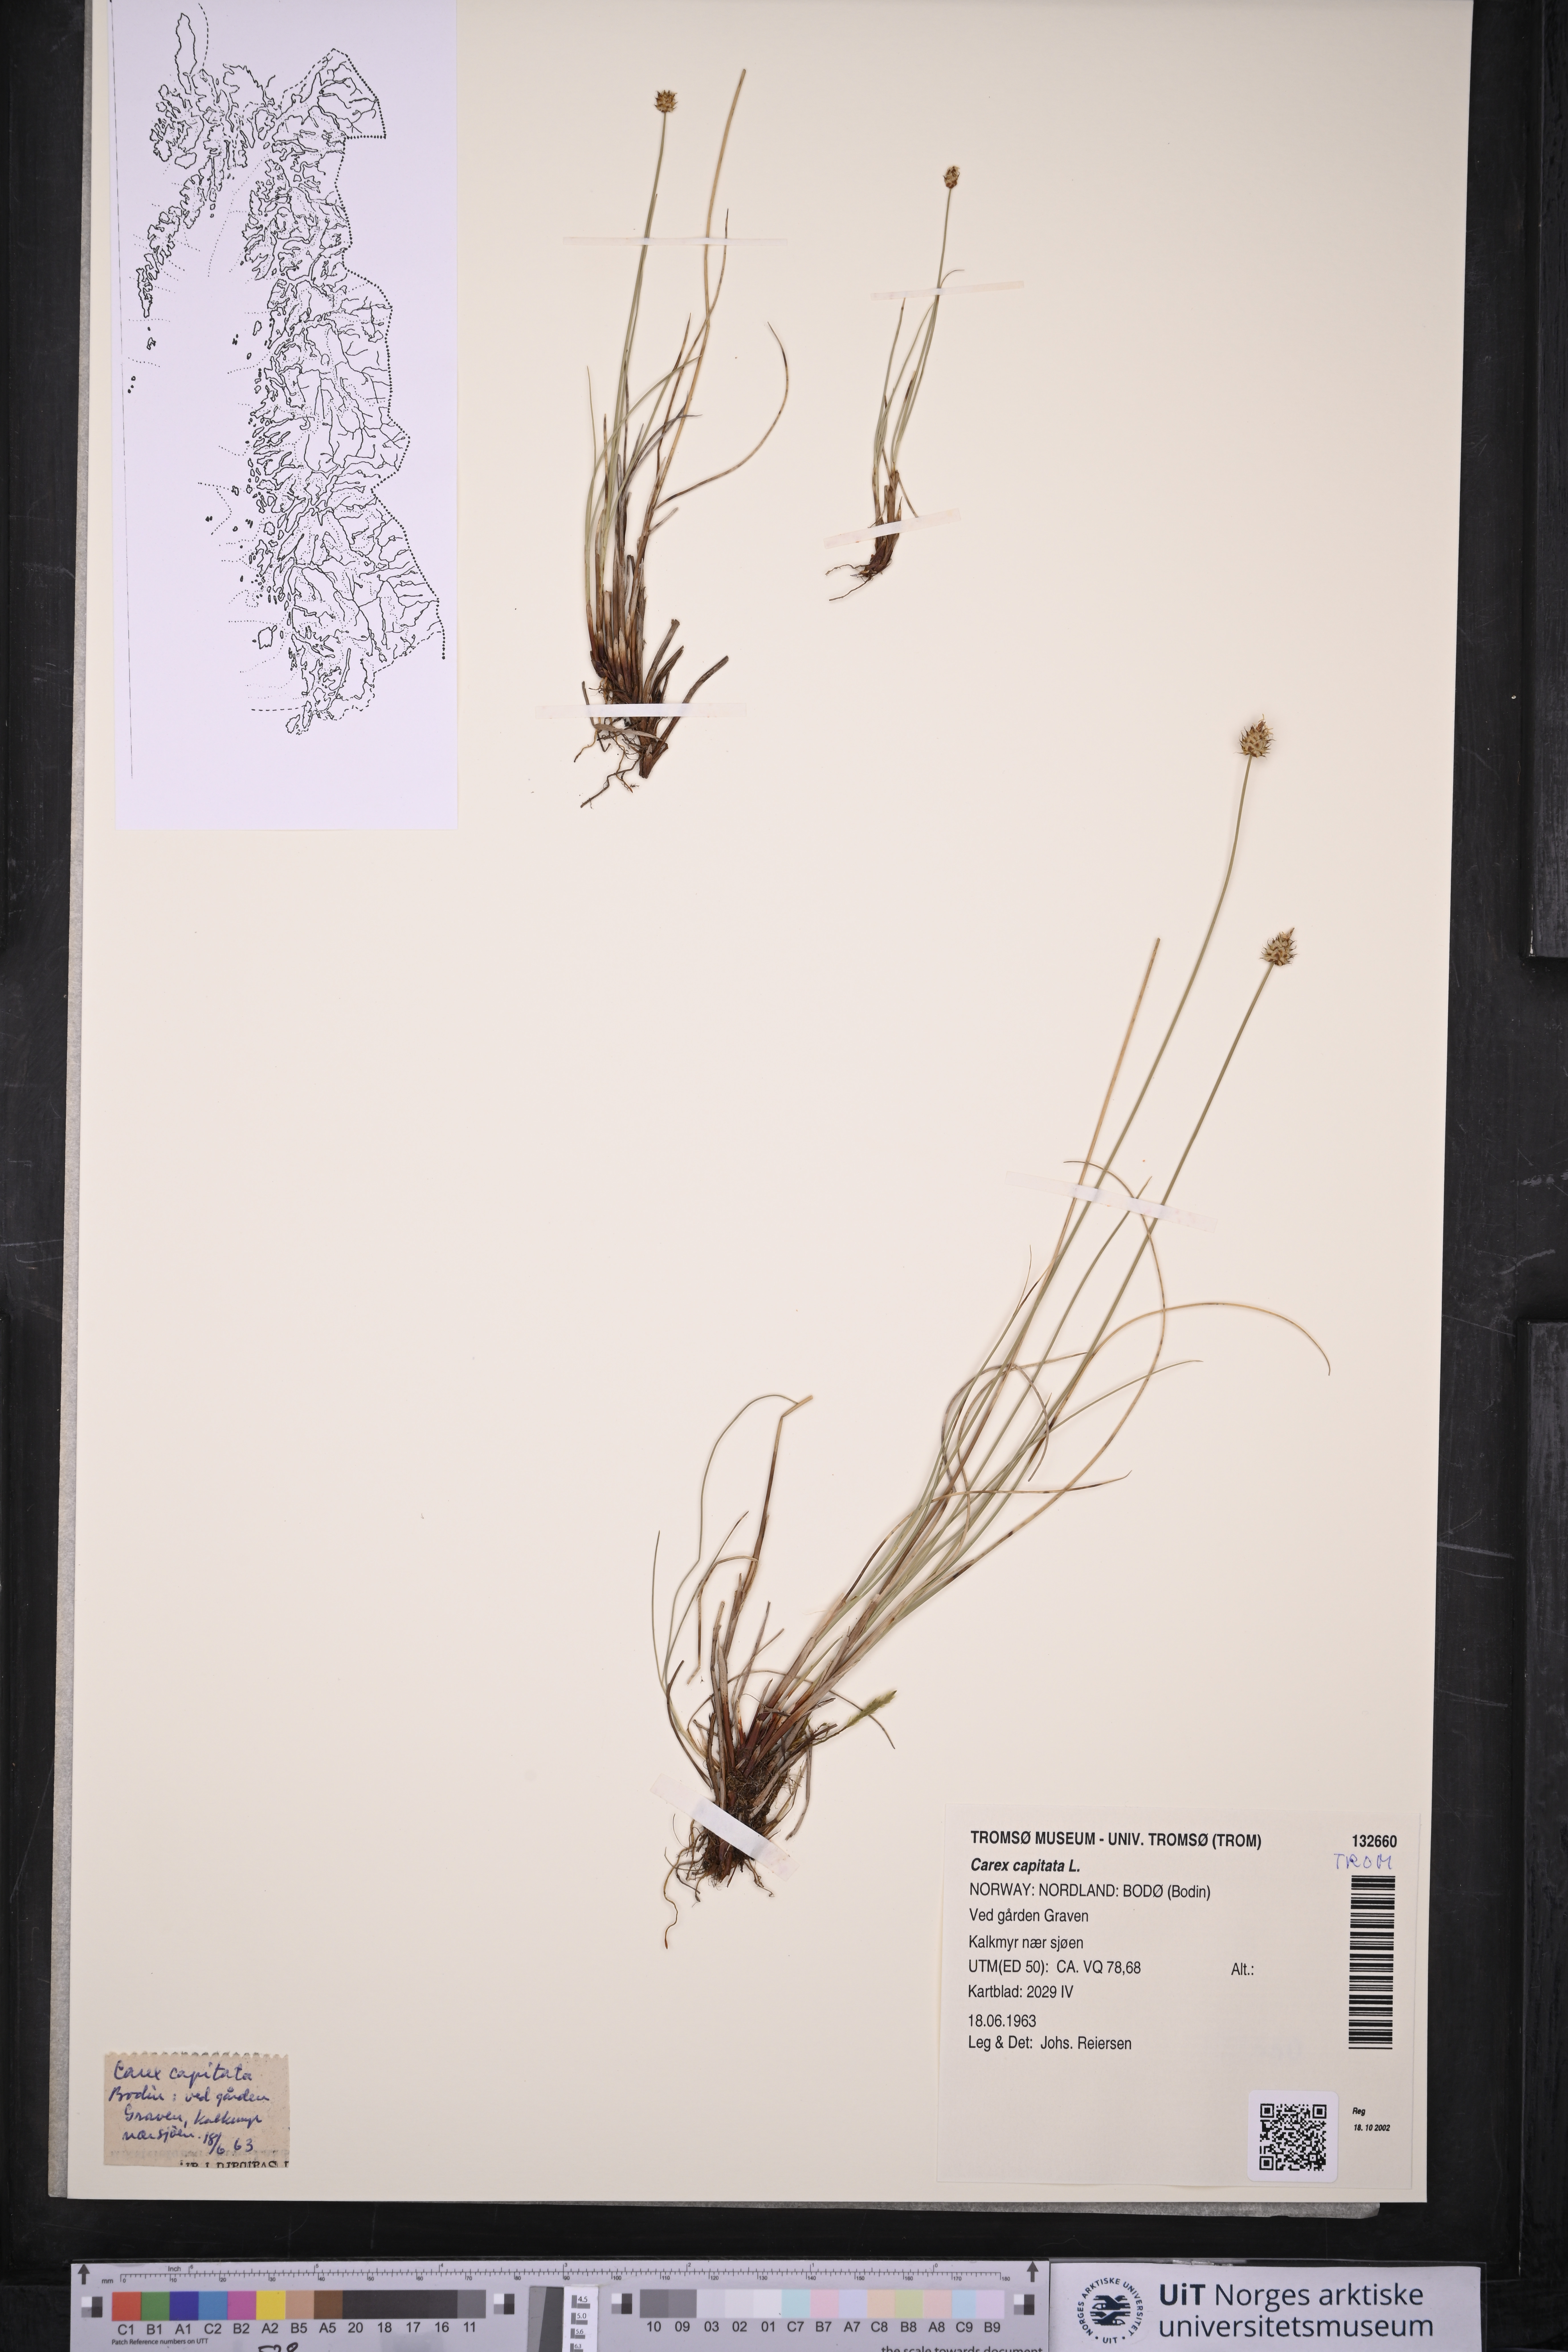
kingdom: Plantae
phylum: Tracheophyta
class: Liliopsida
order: Poales
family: Cyperaceae
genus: Carex
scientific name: Carex capitata
